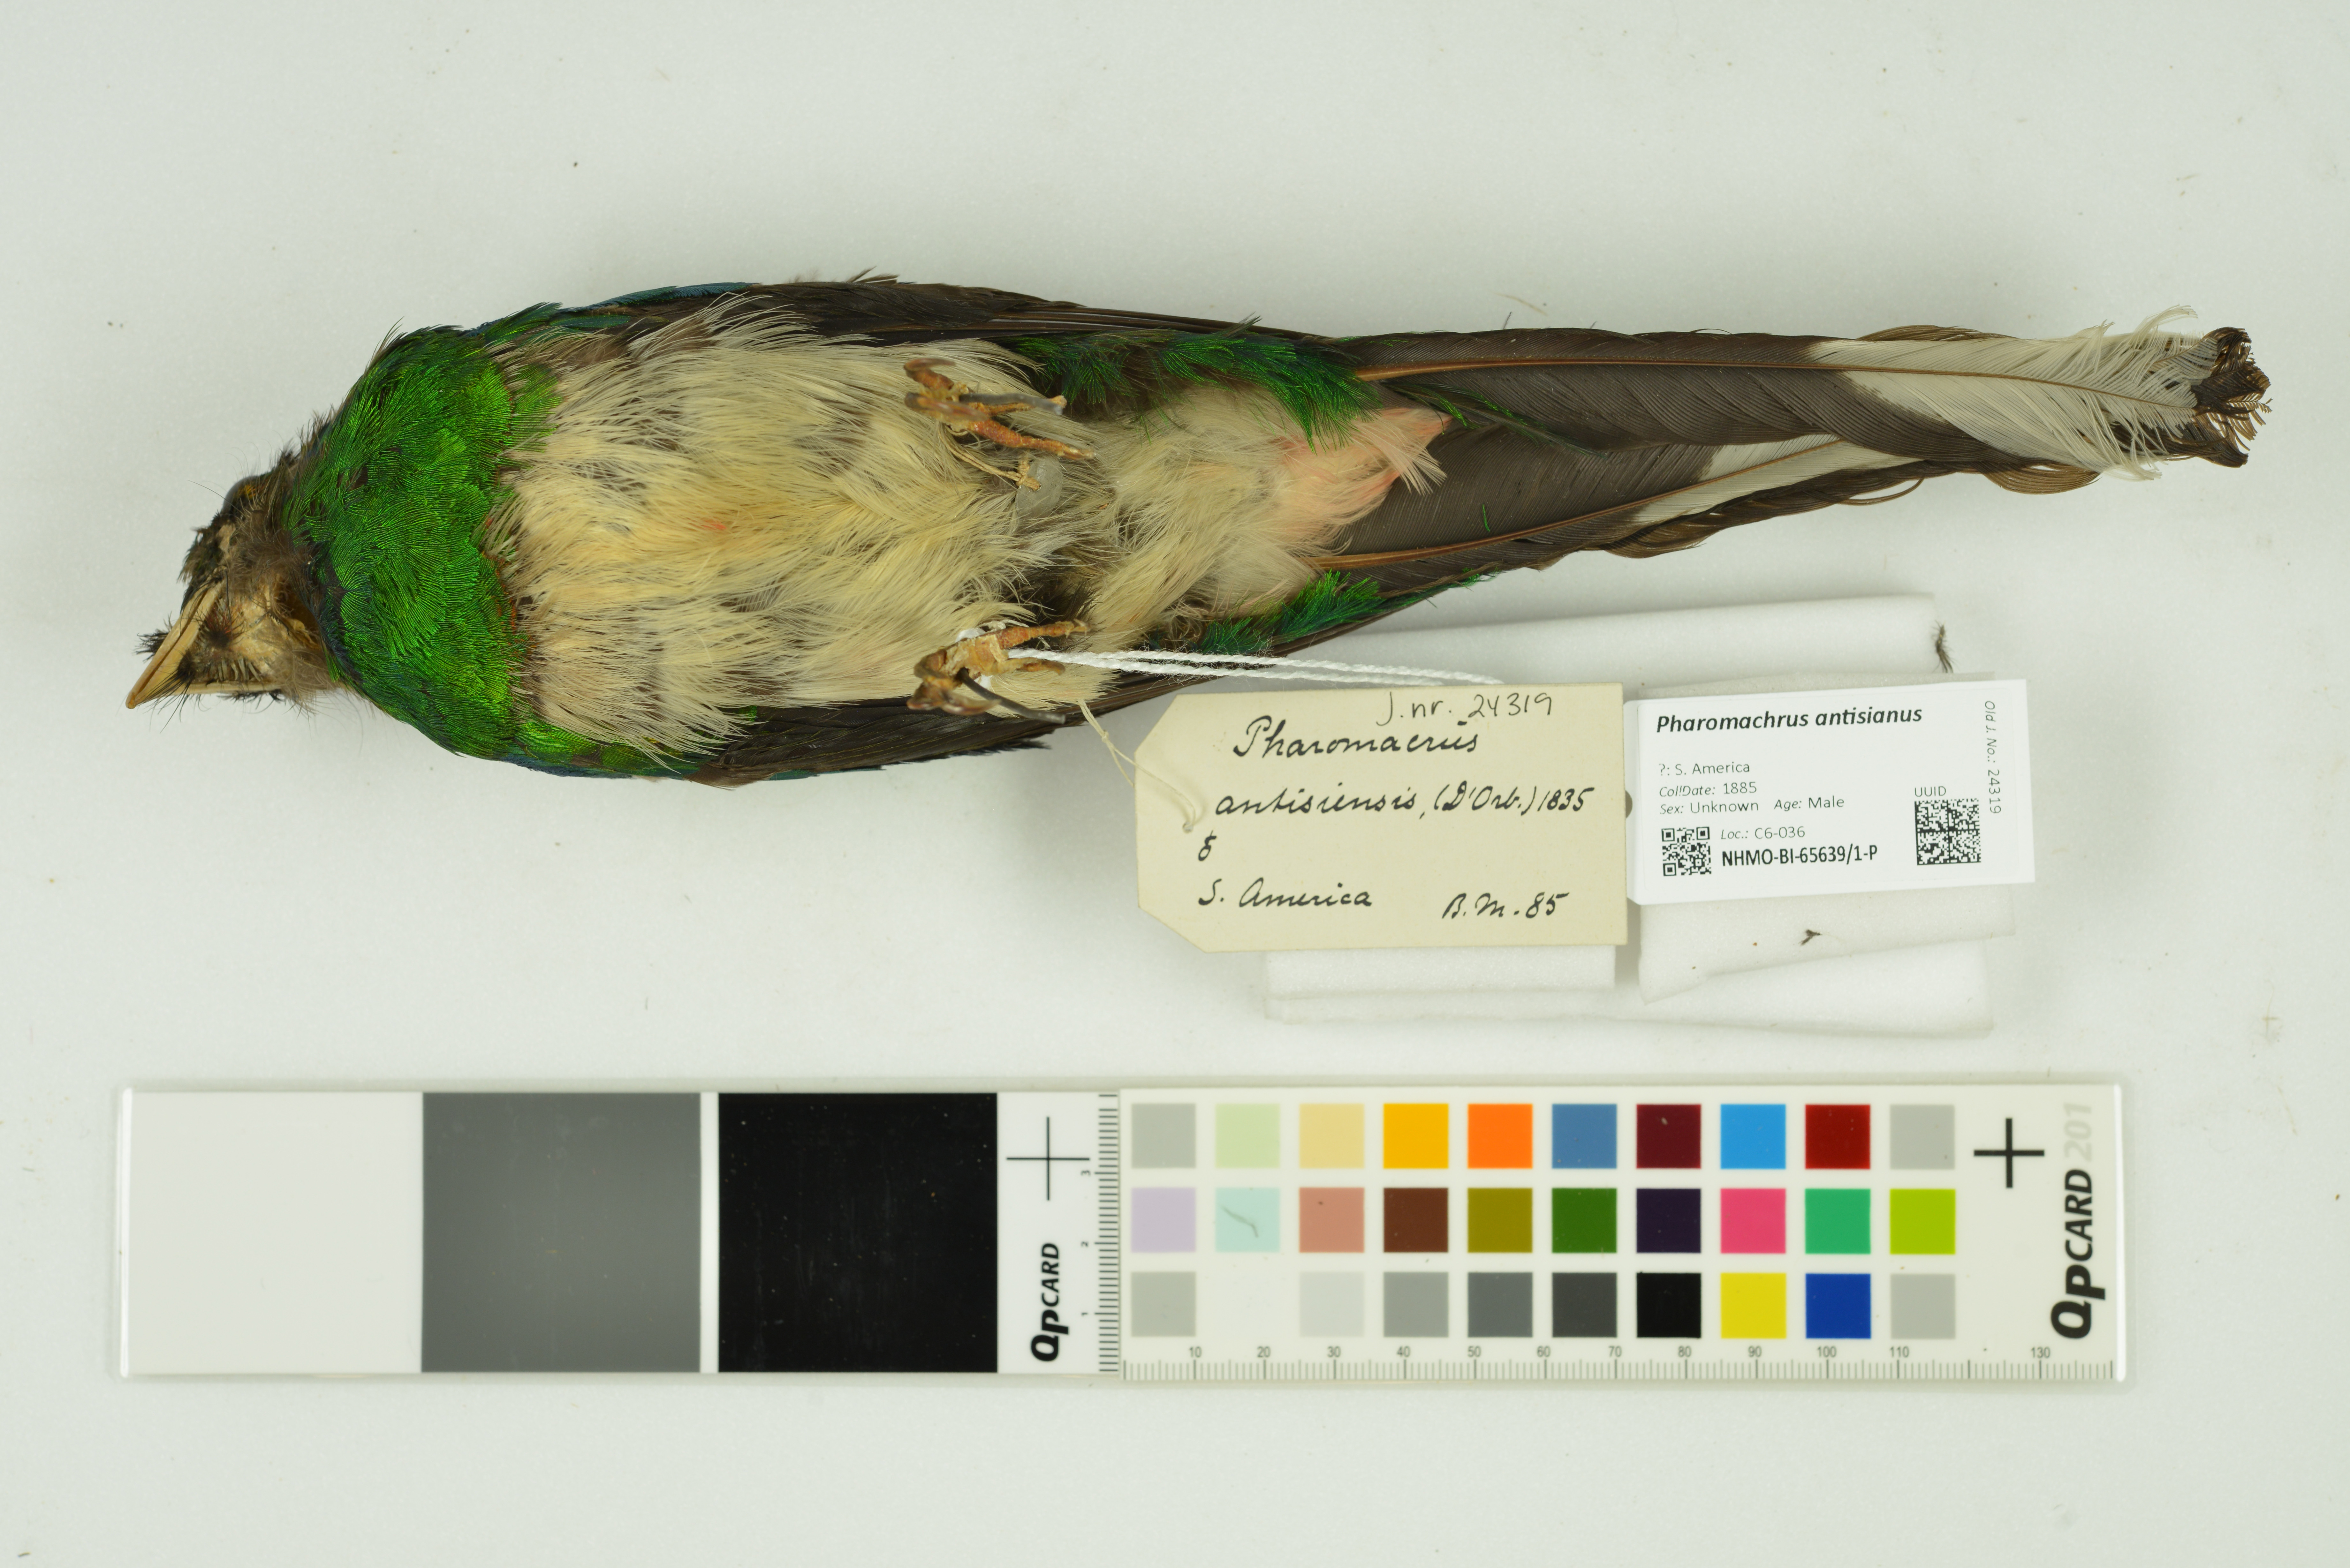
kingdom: Animalia
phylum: Chordata
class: Aves
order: Trogoniformes
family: Trogonidae
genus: Pharomachrus
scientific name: Pharomachrus antisianus
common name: Crested quetzal
